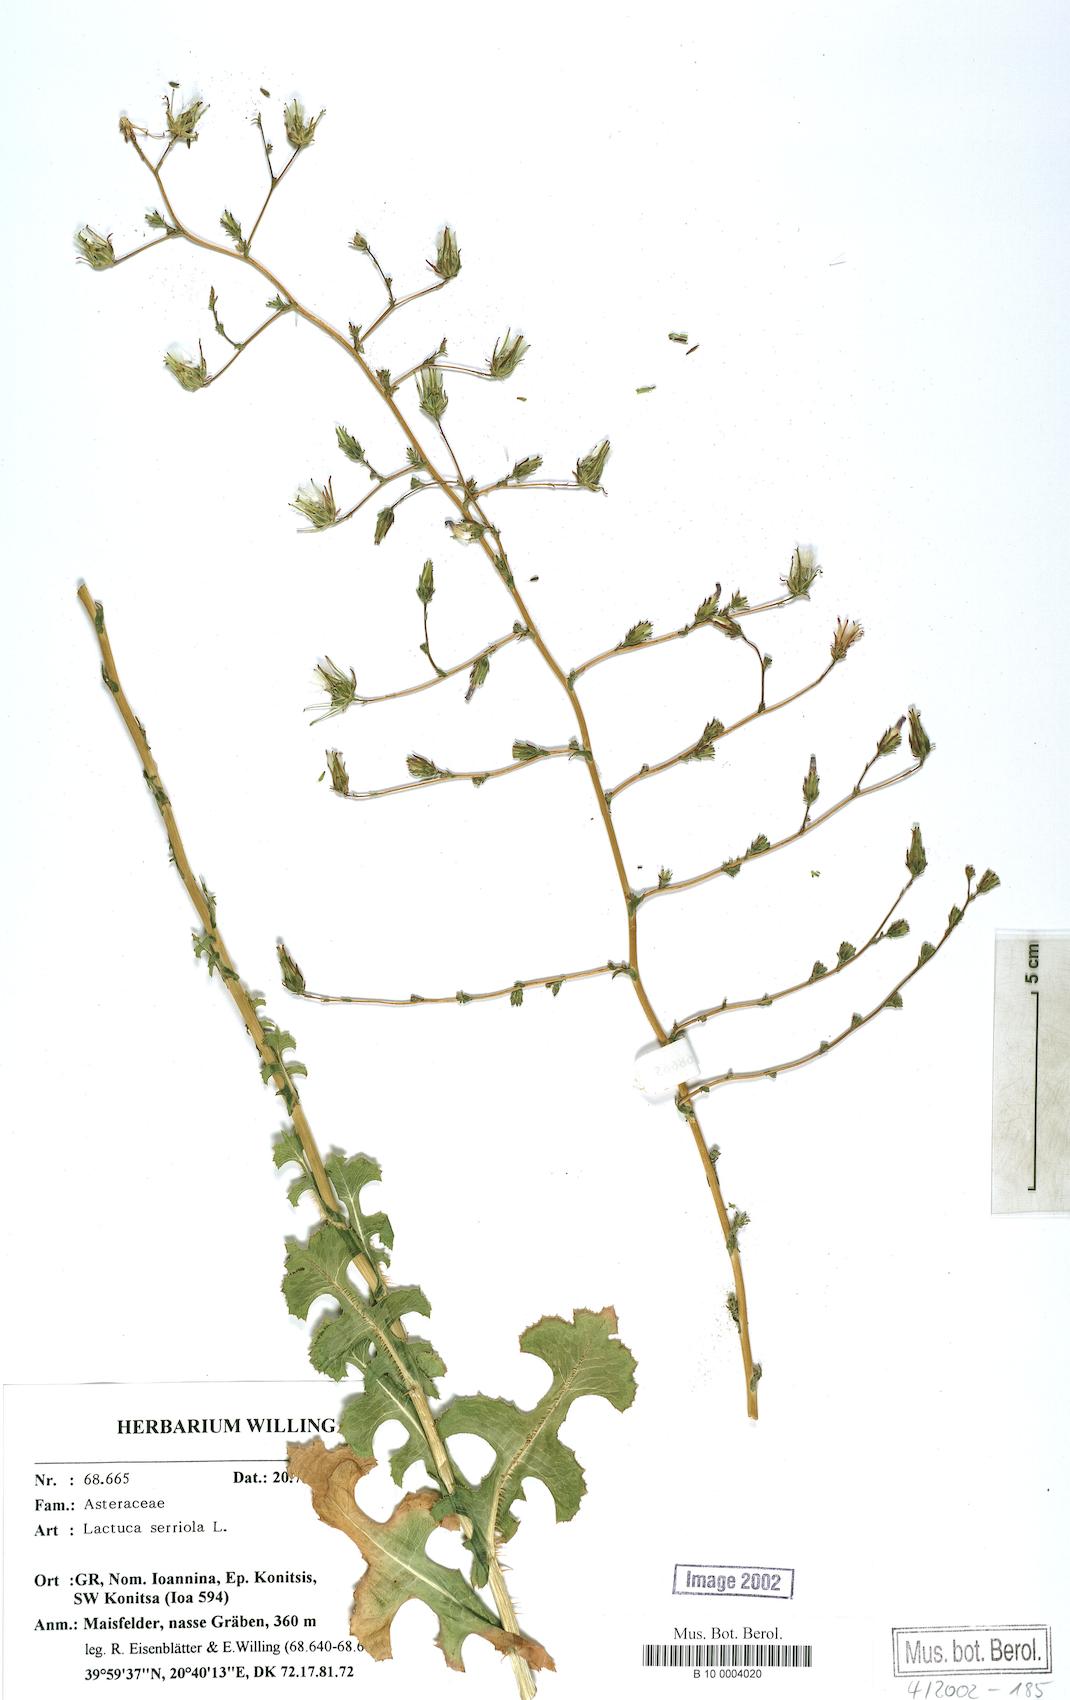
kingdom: Plantae
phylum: Tracheophyta
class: Magnoliopsida
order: Asterales
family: Asteraceae
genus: Lactuca
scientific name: Lactuca serriola
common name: Prickly lettuce
